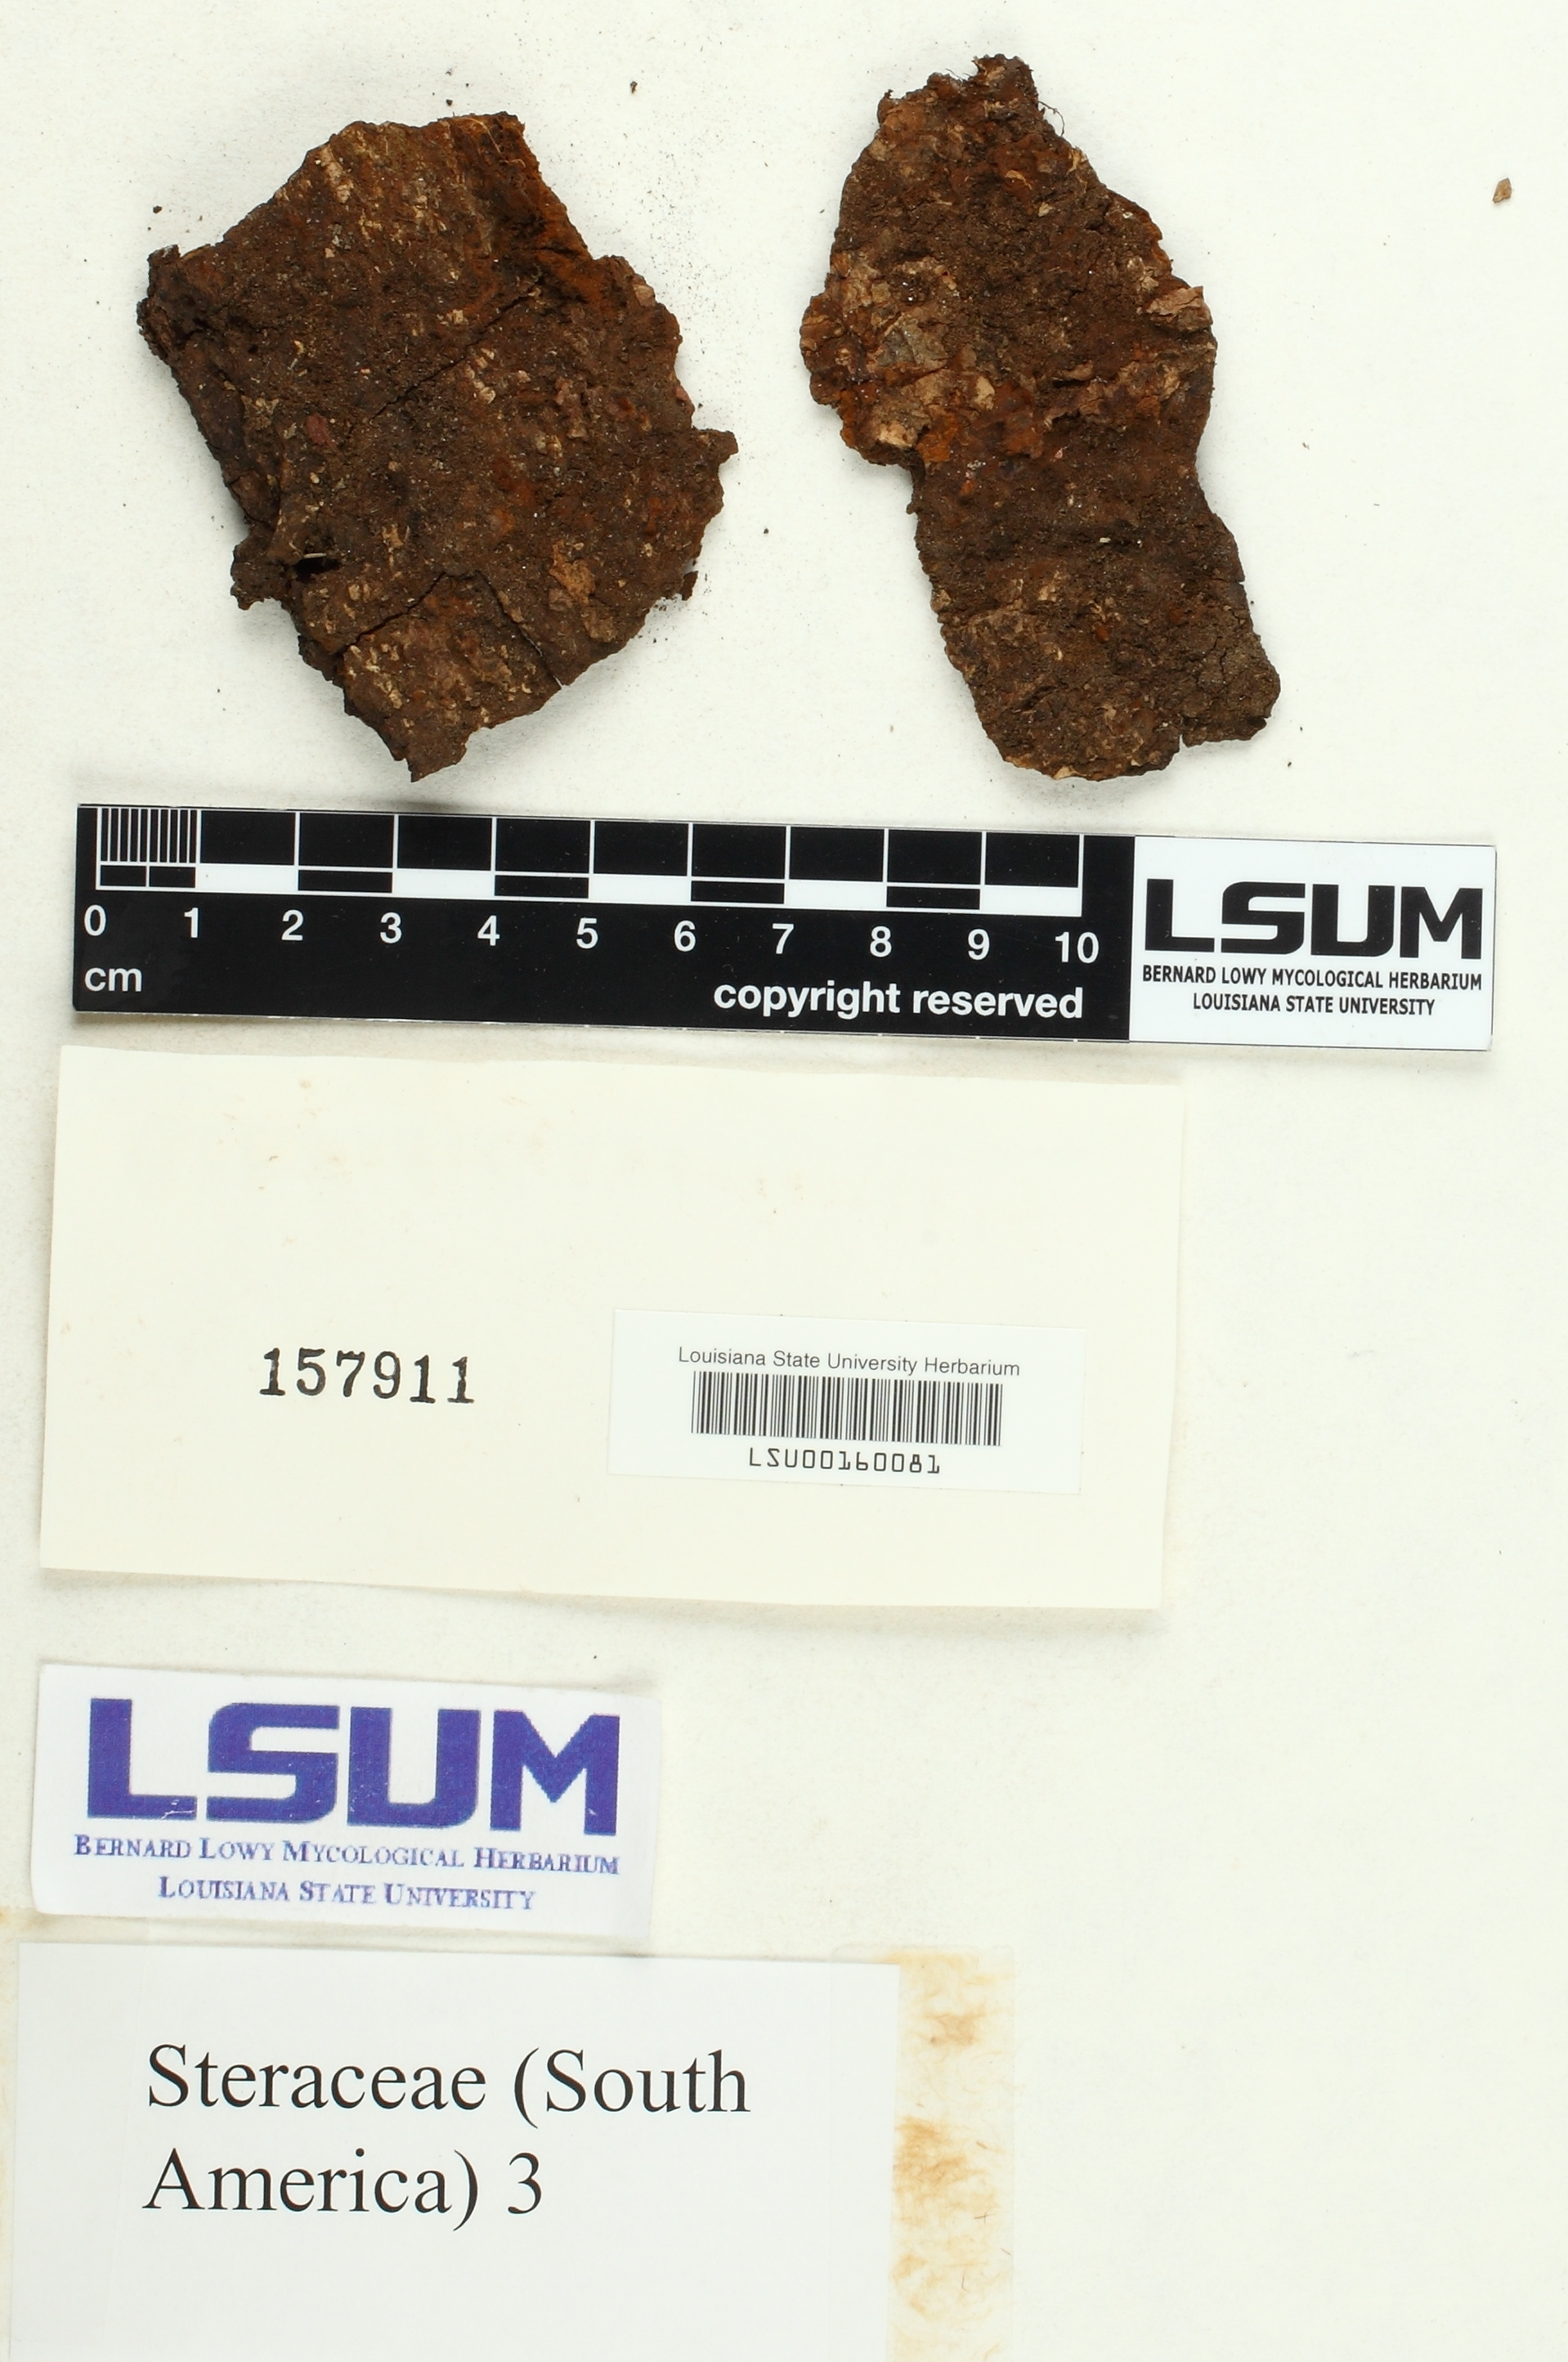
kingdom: Fungi
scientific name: Fungi
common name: Fungi
